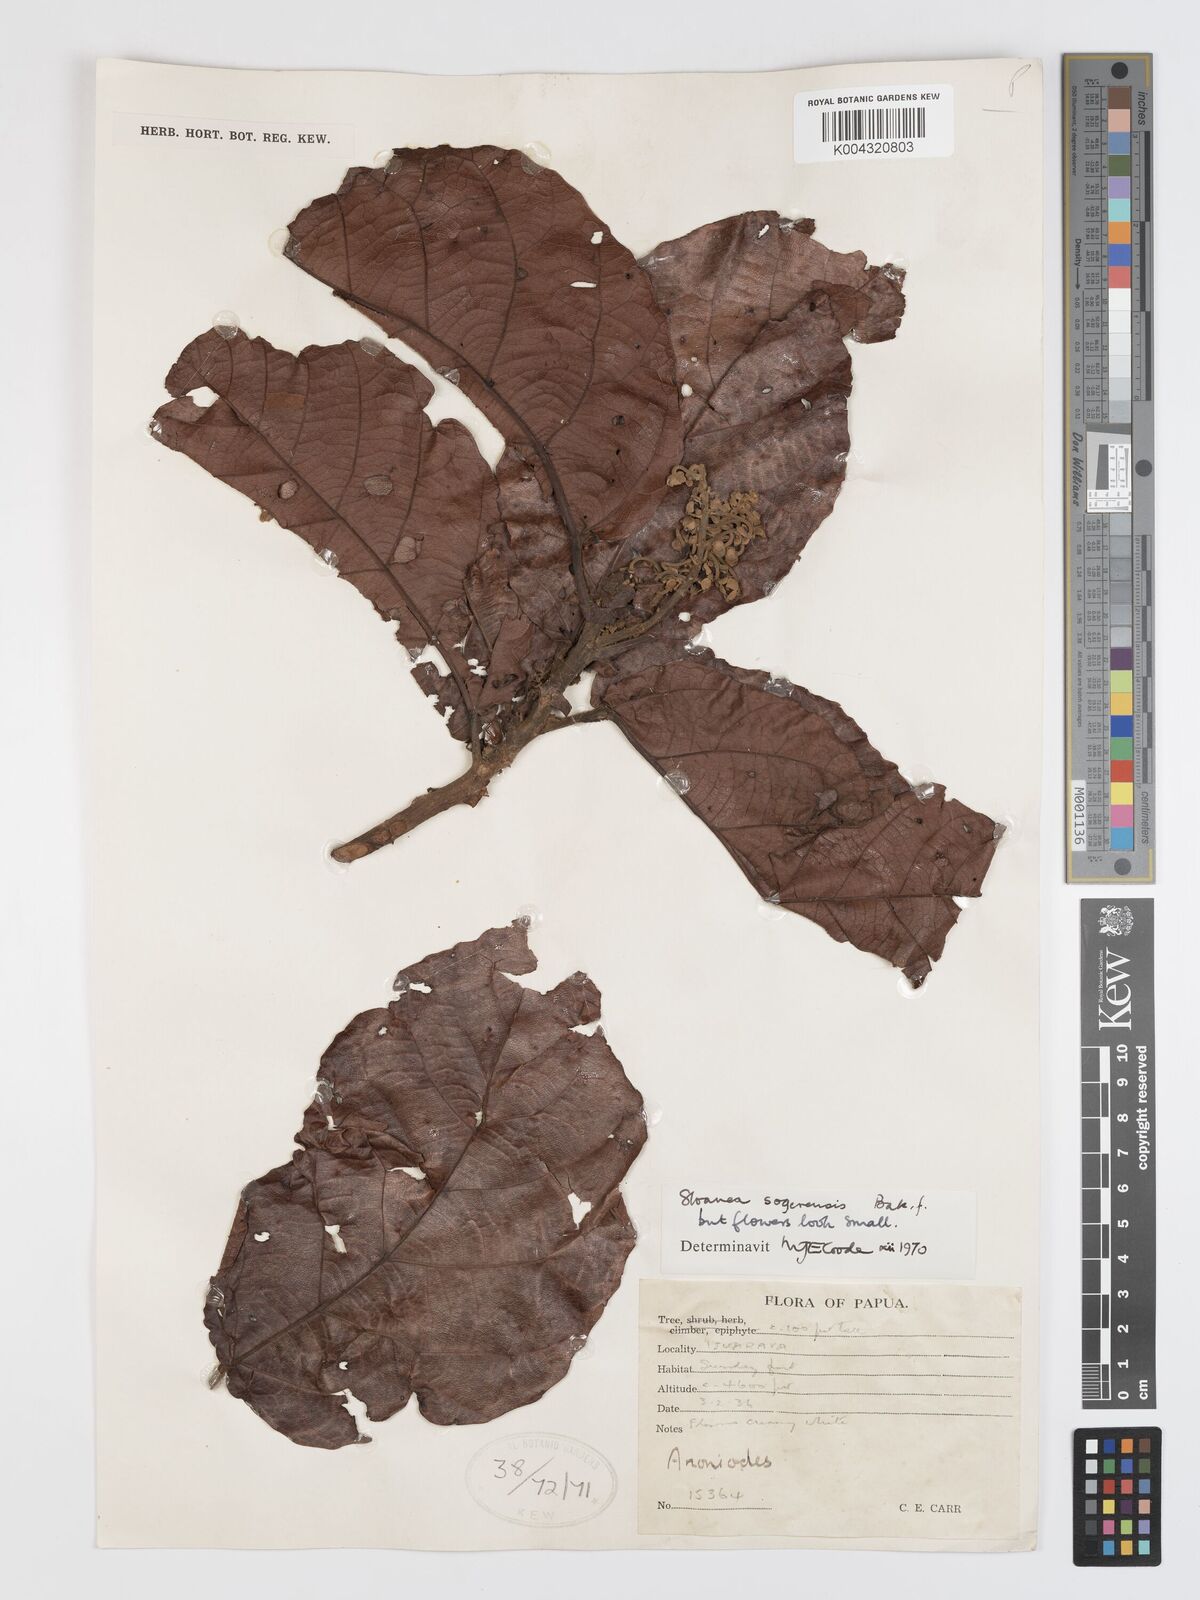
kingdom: Plantae
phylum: Tracheophyta
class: Magnoliopsida
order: Oxalidales
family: Elaeocarpaceae
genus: Sloanea
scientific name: Sloanea sogerensis
